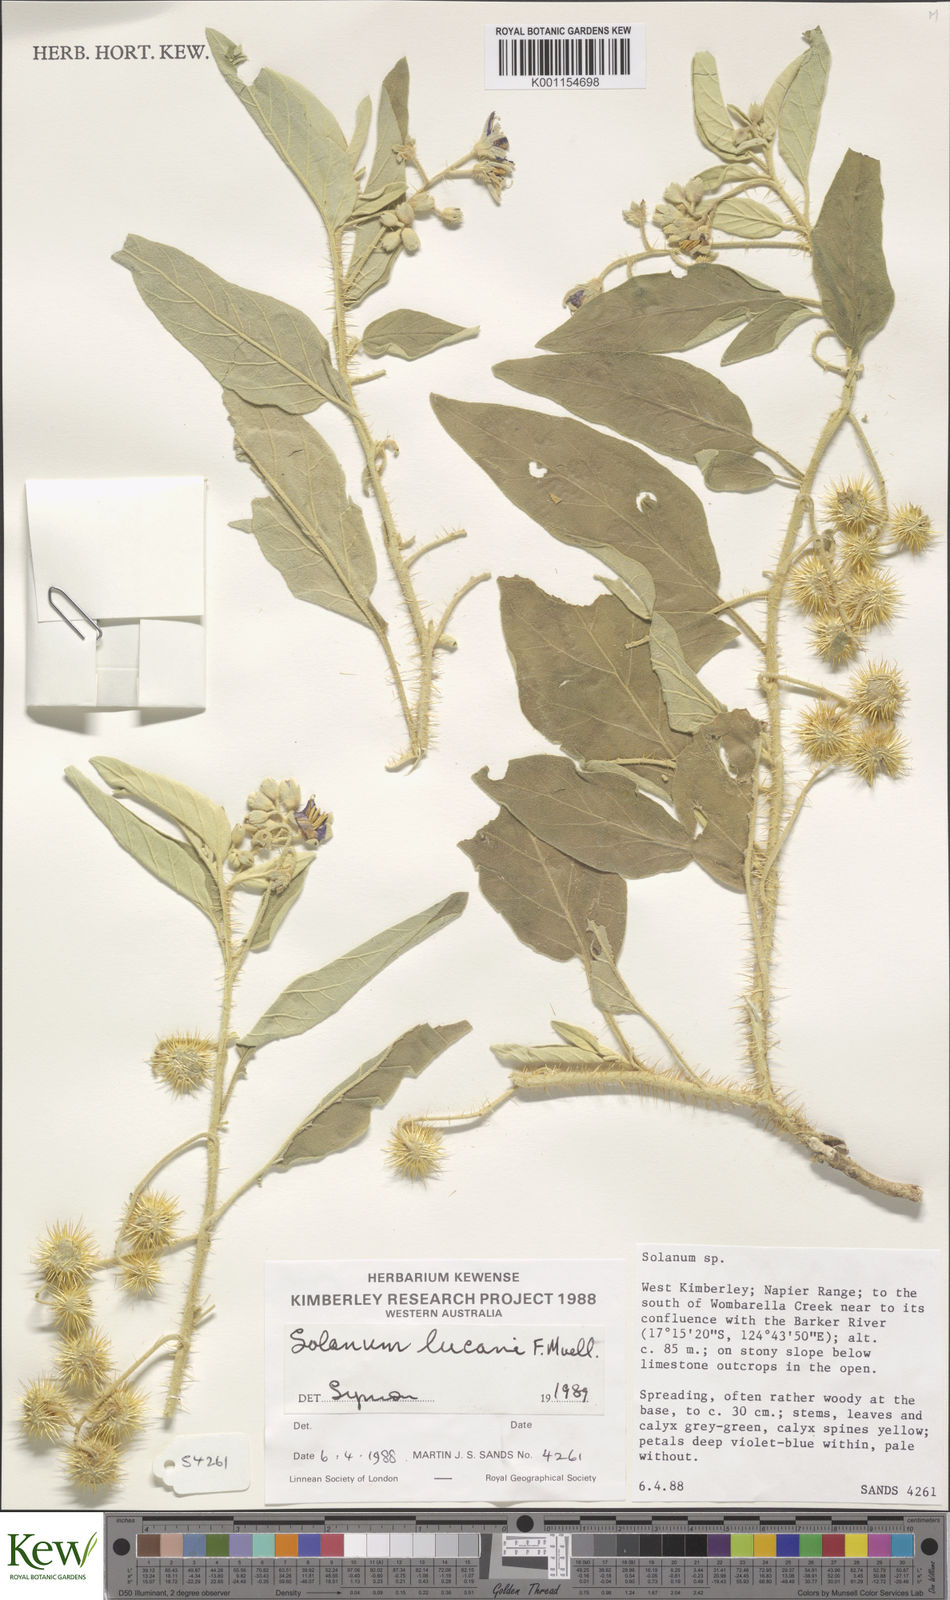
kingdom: Plantae
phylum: Tracheophyta
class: Magnoliopsida
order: Solanales
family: Solanaceae
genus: Solanum
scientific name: Solanum lucani
